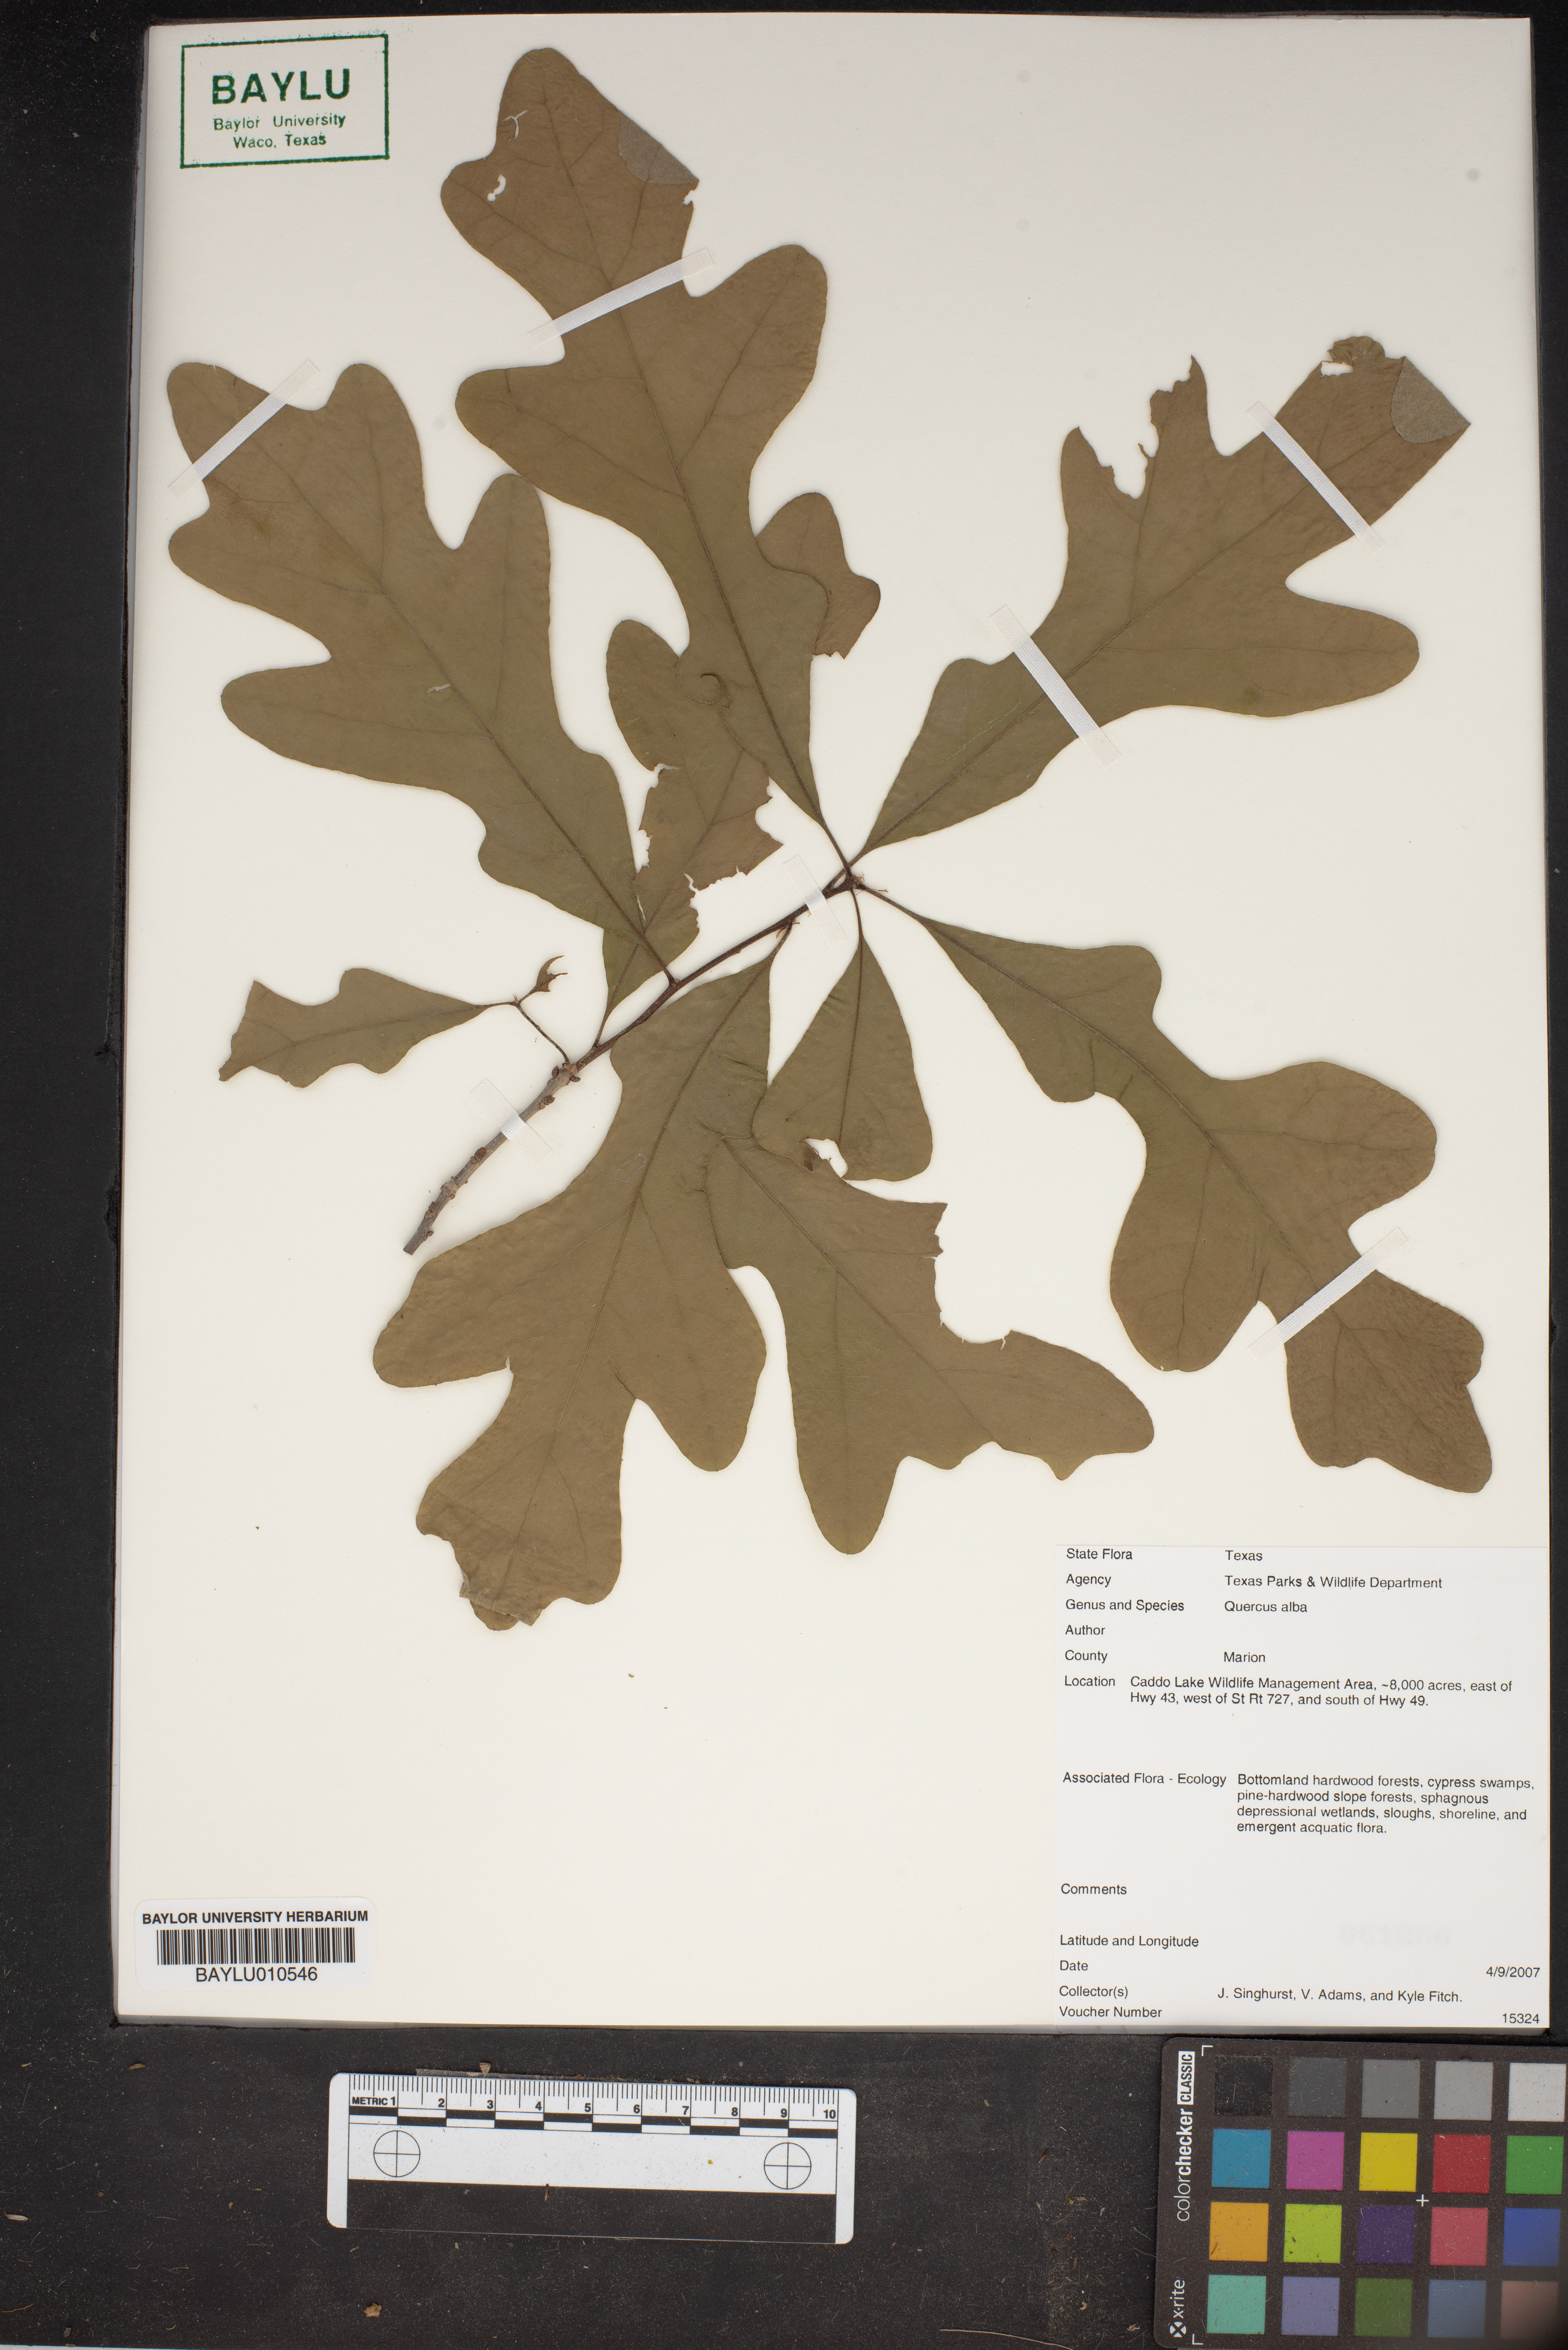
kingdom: Plantae
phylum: Tracheophyta
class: Magnoliopsida
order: Fagales
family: Fagaceae
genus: Quercus
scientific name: Quercus alba
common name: White oak
